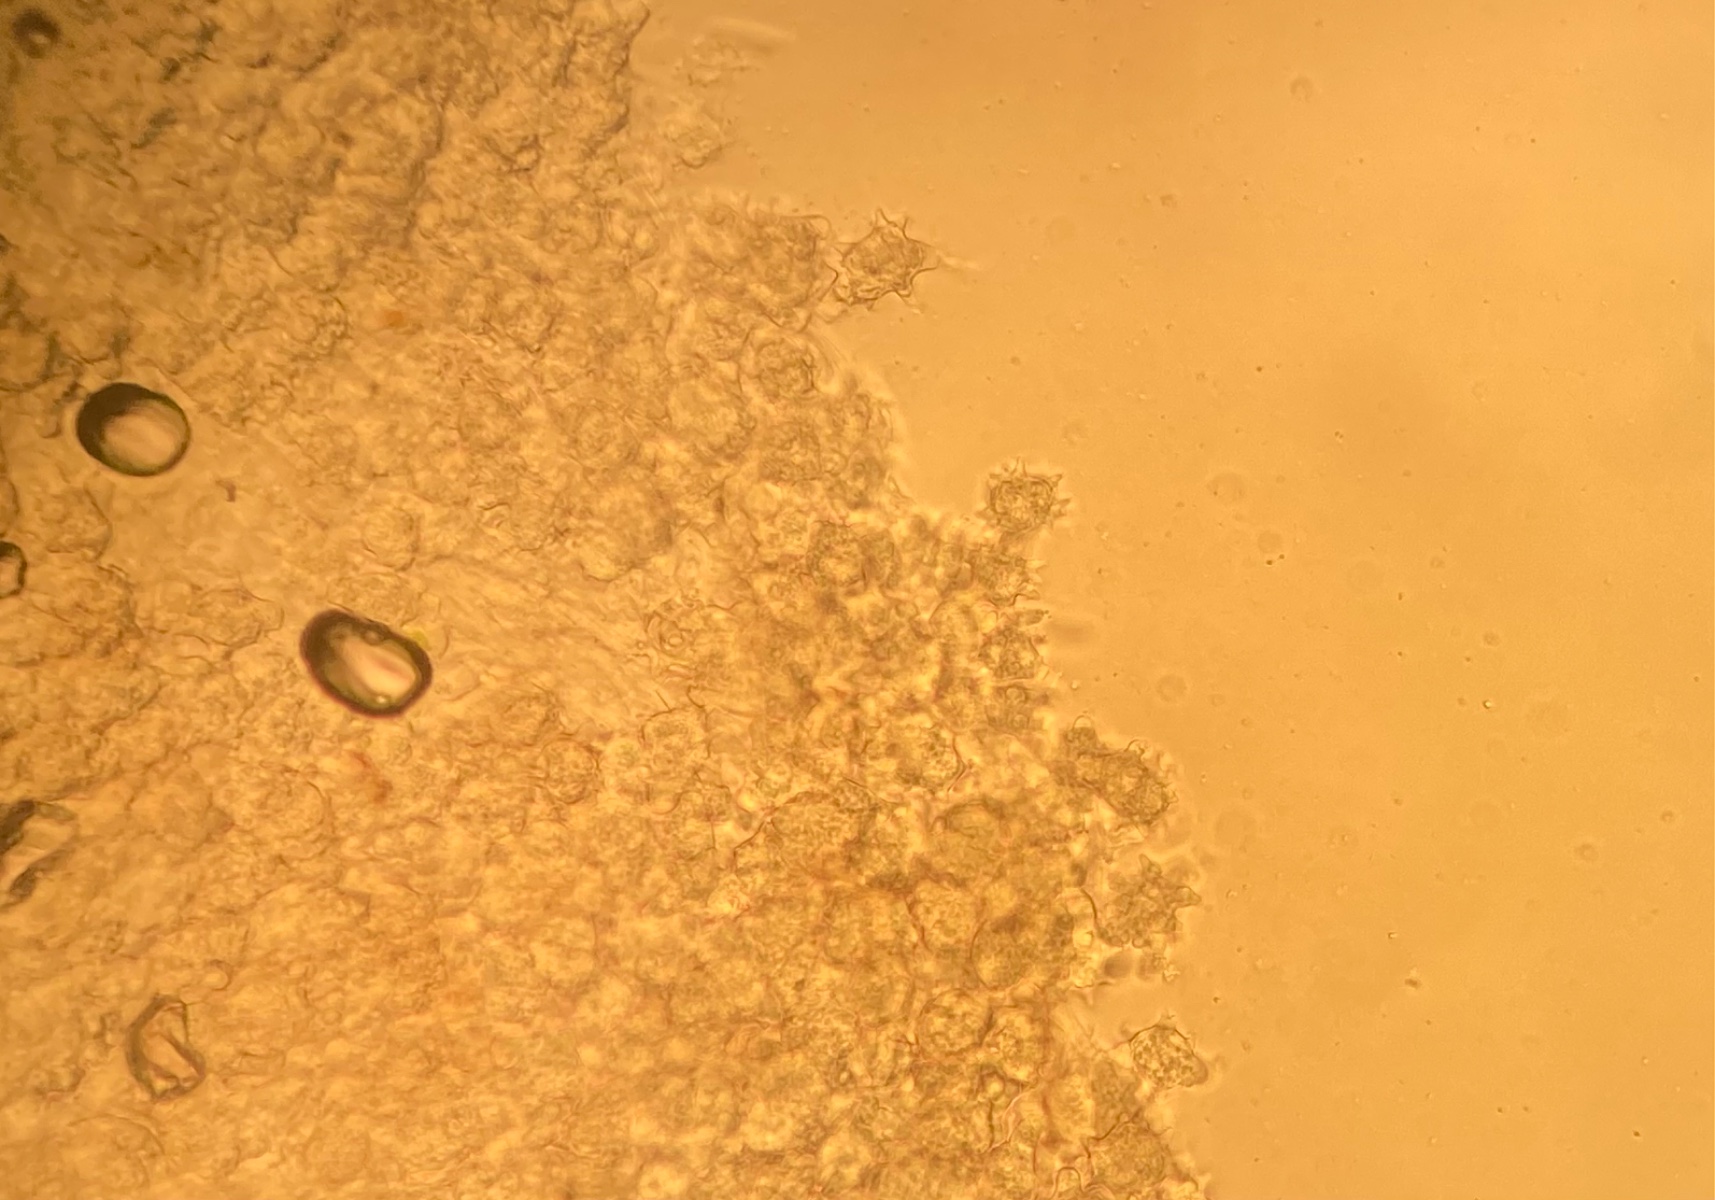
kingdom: Fungi
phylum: Basidiomycota
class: Agaricomycetes
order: Agaricales
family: Lyophyllaceae
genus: Asterophora
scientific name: Asterophora lycoperdoides
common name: brunpudret snyltehat
